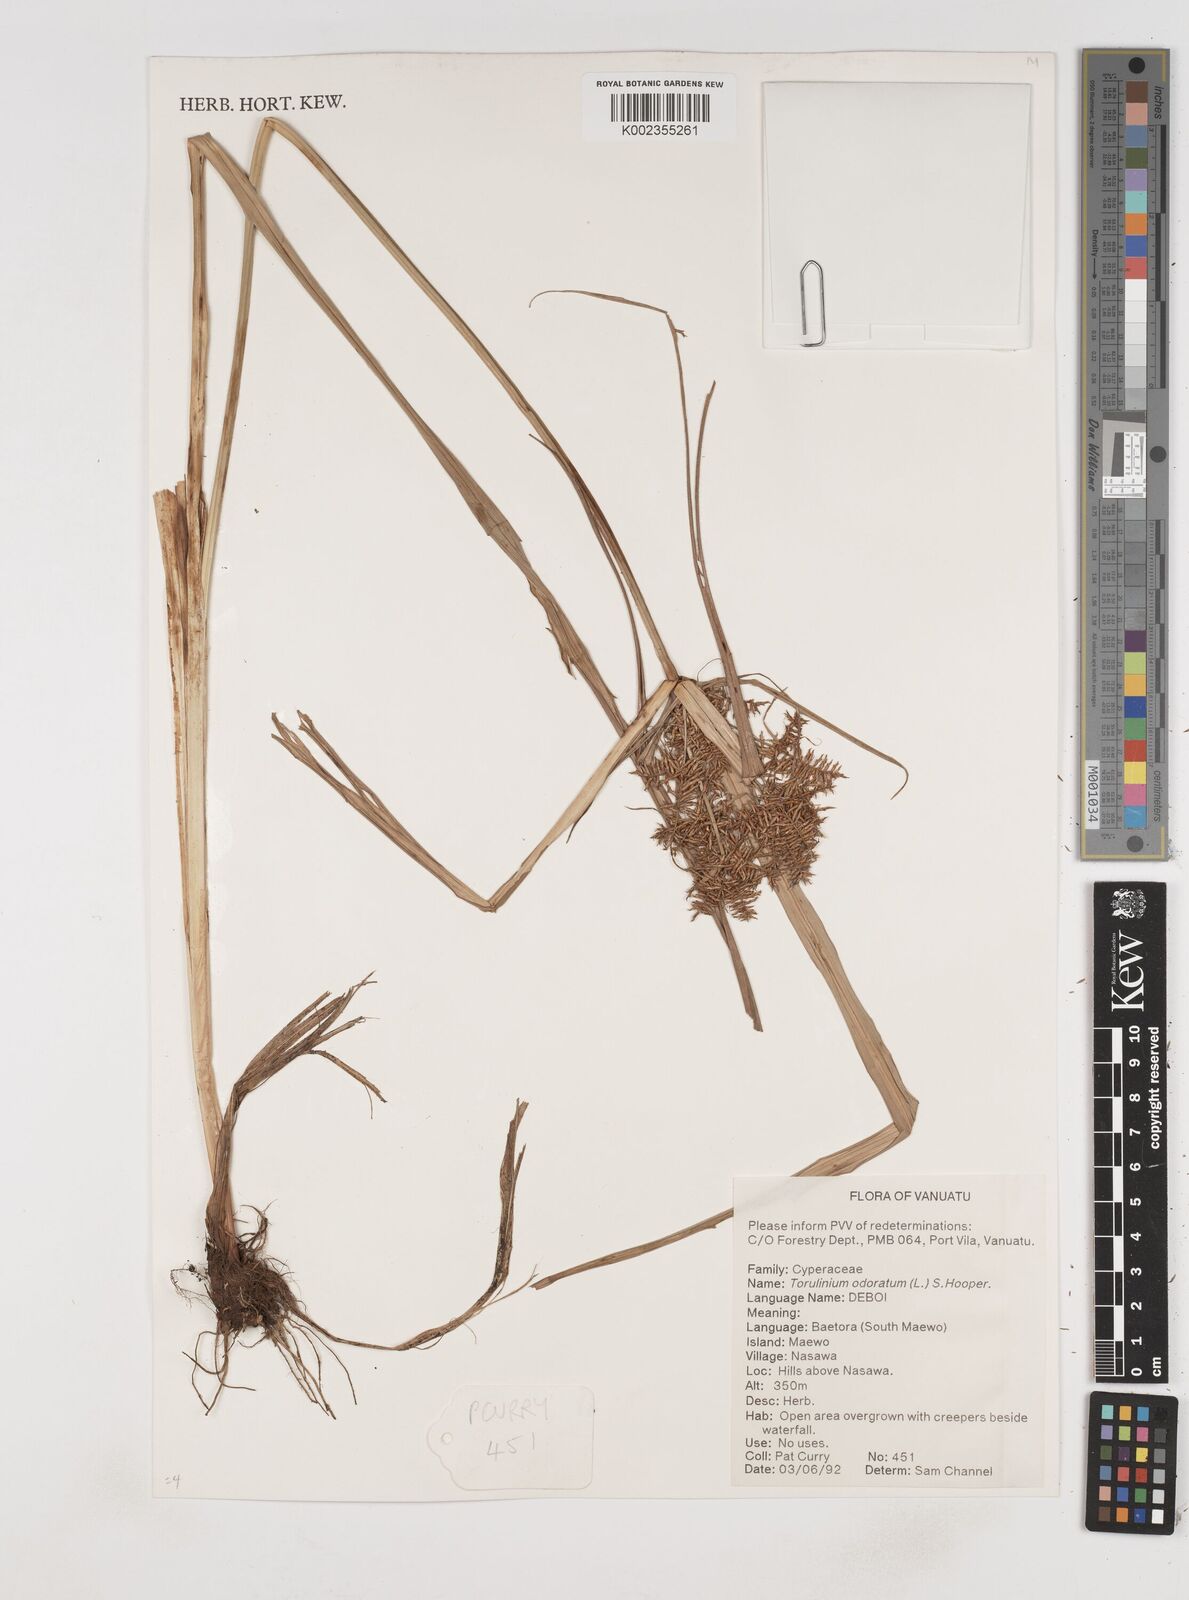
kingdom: Plantae
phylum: Tracheophyta
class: Liliopsida
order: Poales
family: Cyperaceae
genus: Cyperus
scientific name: Cyperus odoratus
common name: Fragrant flatsedge
